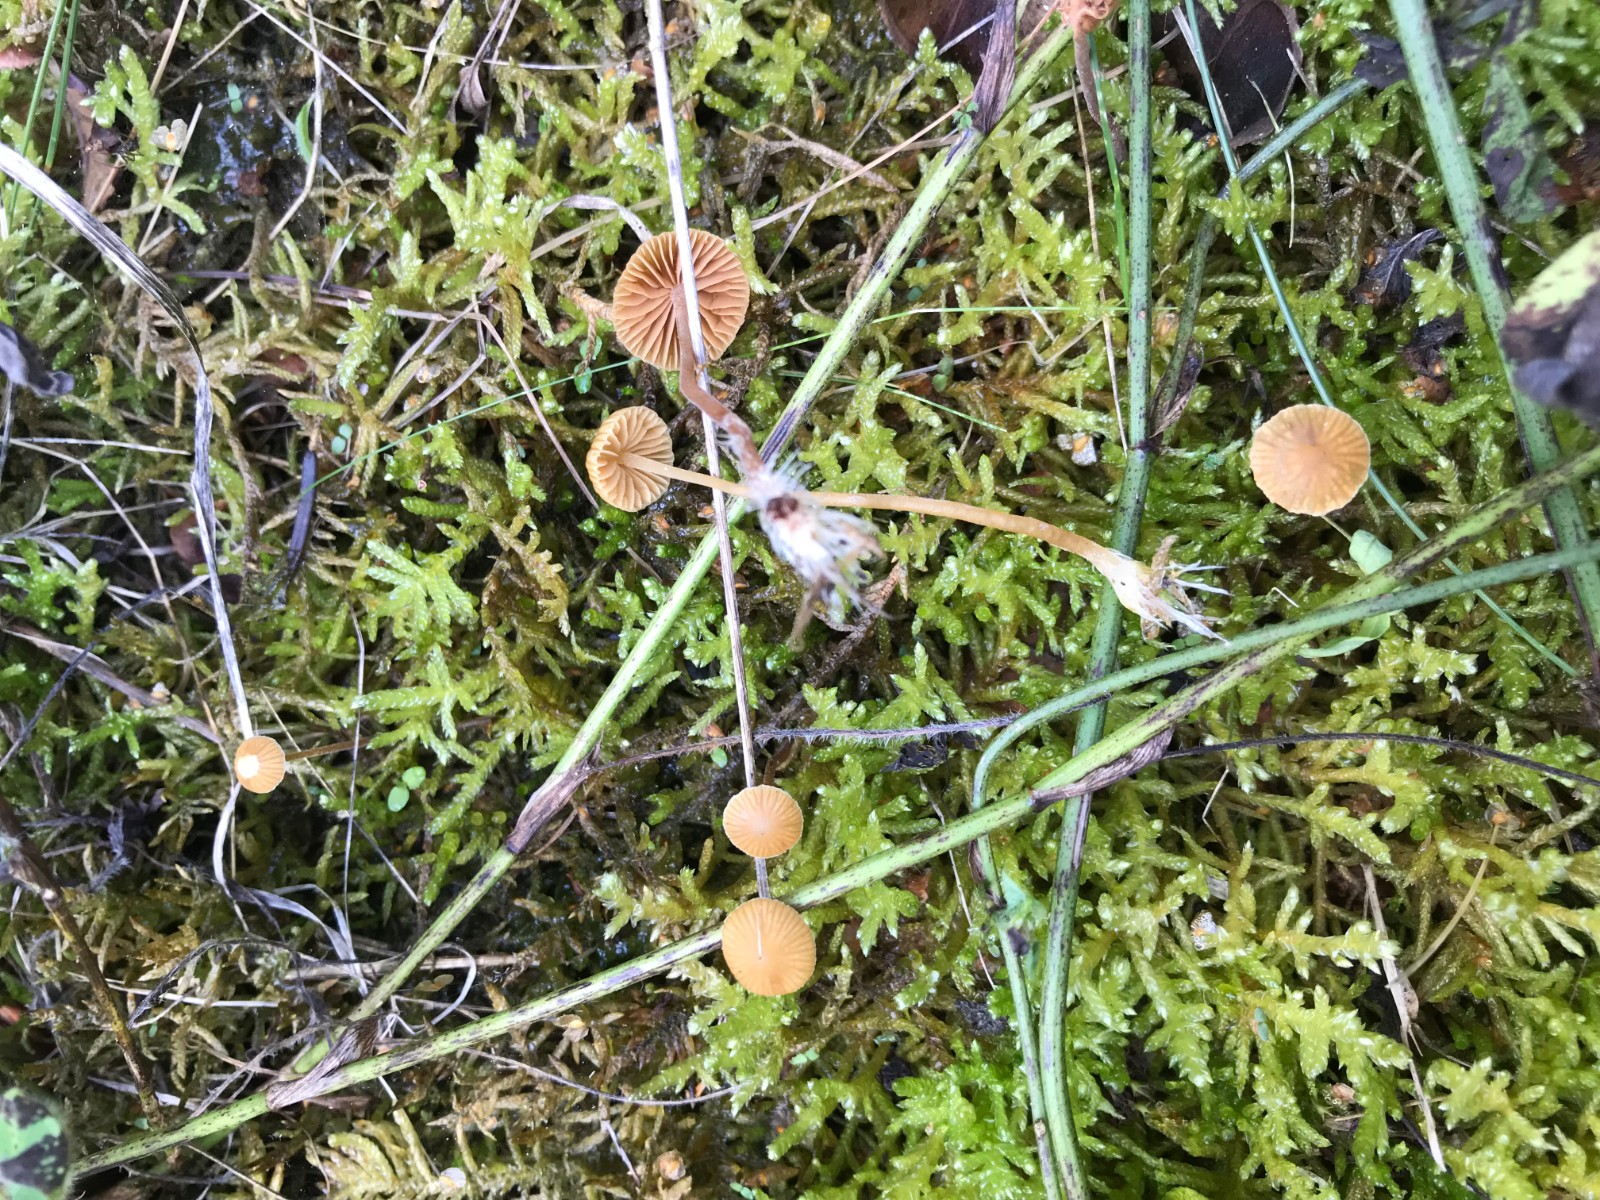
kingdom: Fungi
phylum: Basidiomycota
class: Agaricomycetes
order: Agaricales
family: Hymenogastraceae
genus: Galerina
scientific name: Galerina
